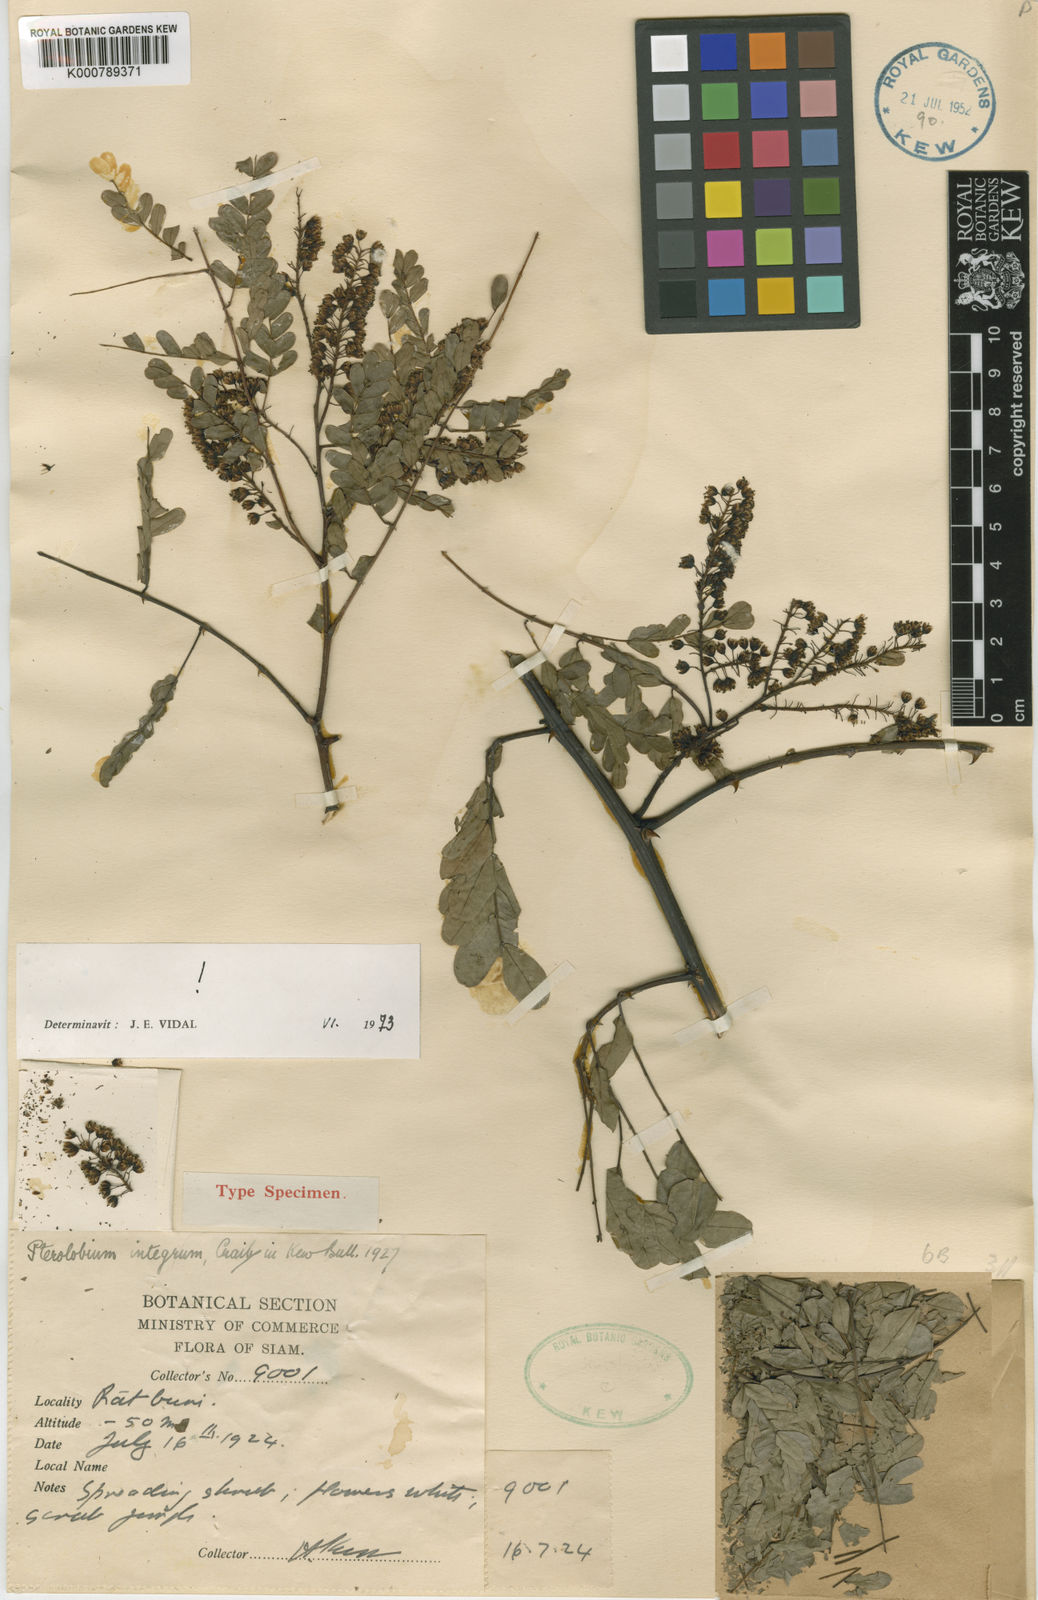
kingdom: Plantae
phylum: Tracheophyta
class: Magnoliopsida
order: Fabales
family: Fabaceae
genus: Pterolobium
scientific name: Pterolobium integrum
